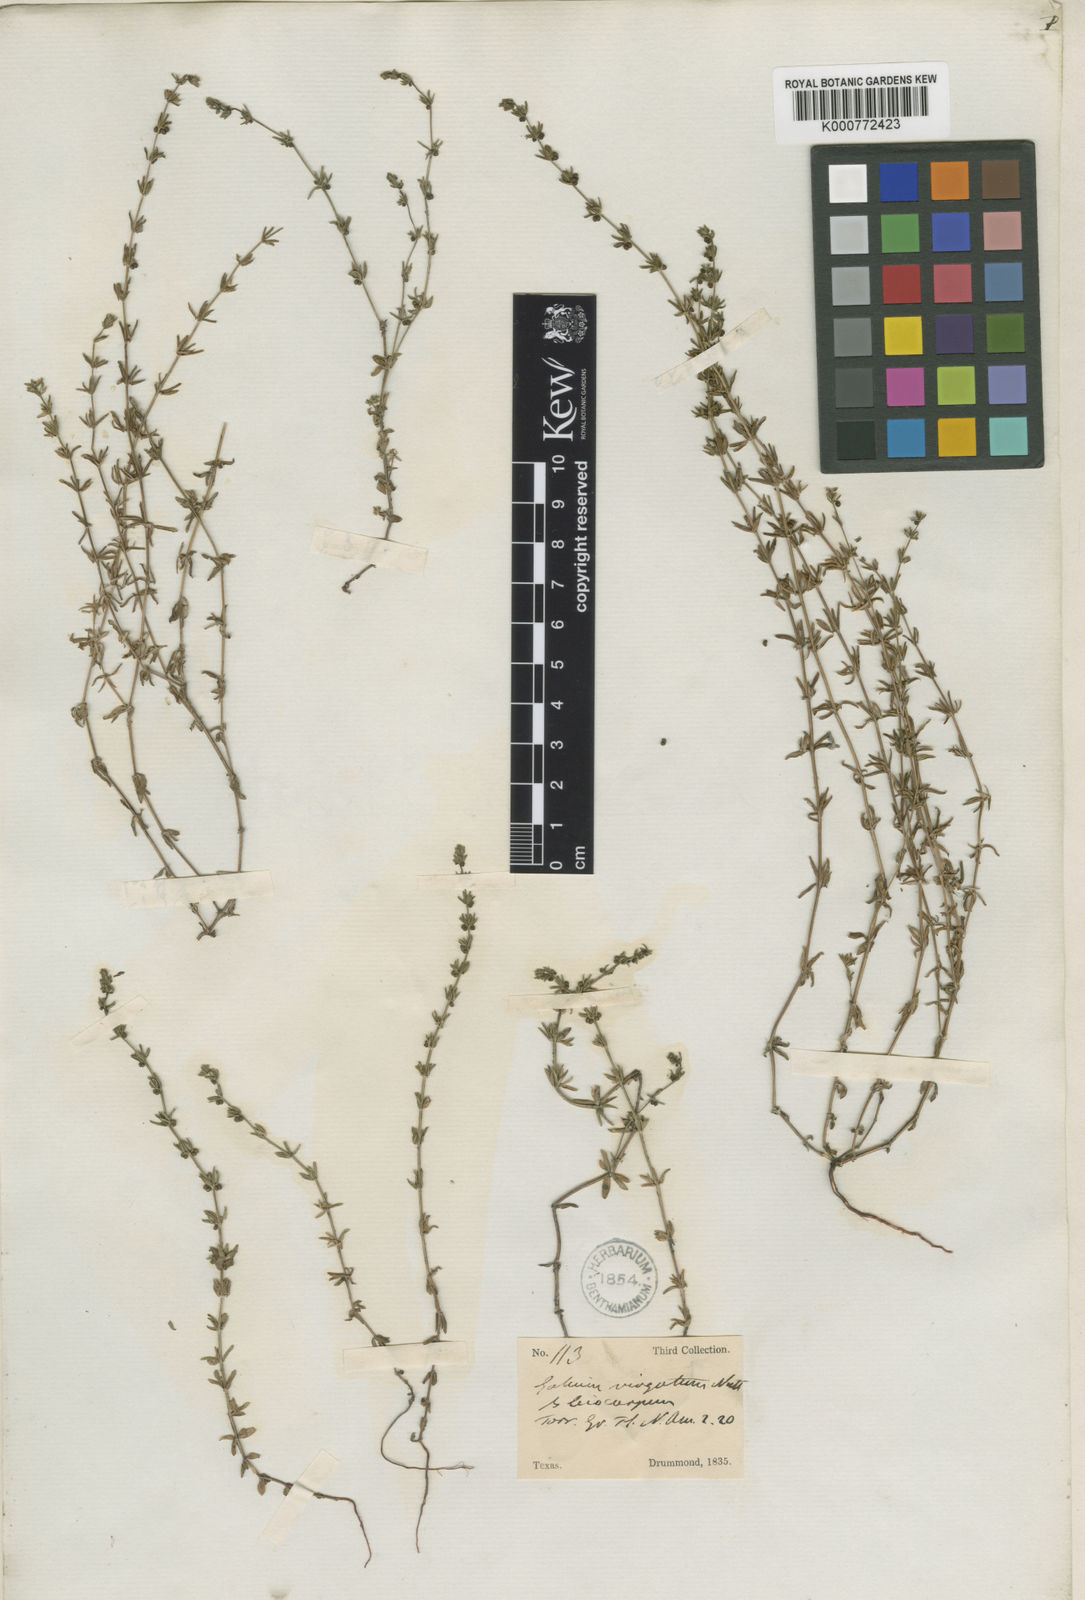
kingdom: Plantae
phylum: Tracheophyta
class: Magnoliopsida
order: Gentianales
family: Rubiaceae
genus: Galium
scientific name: Galium virgatum
